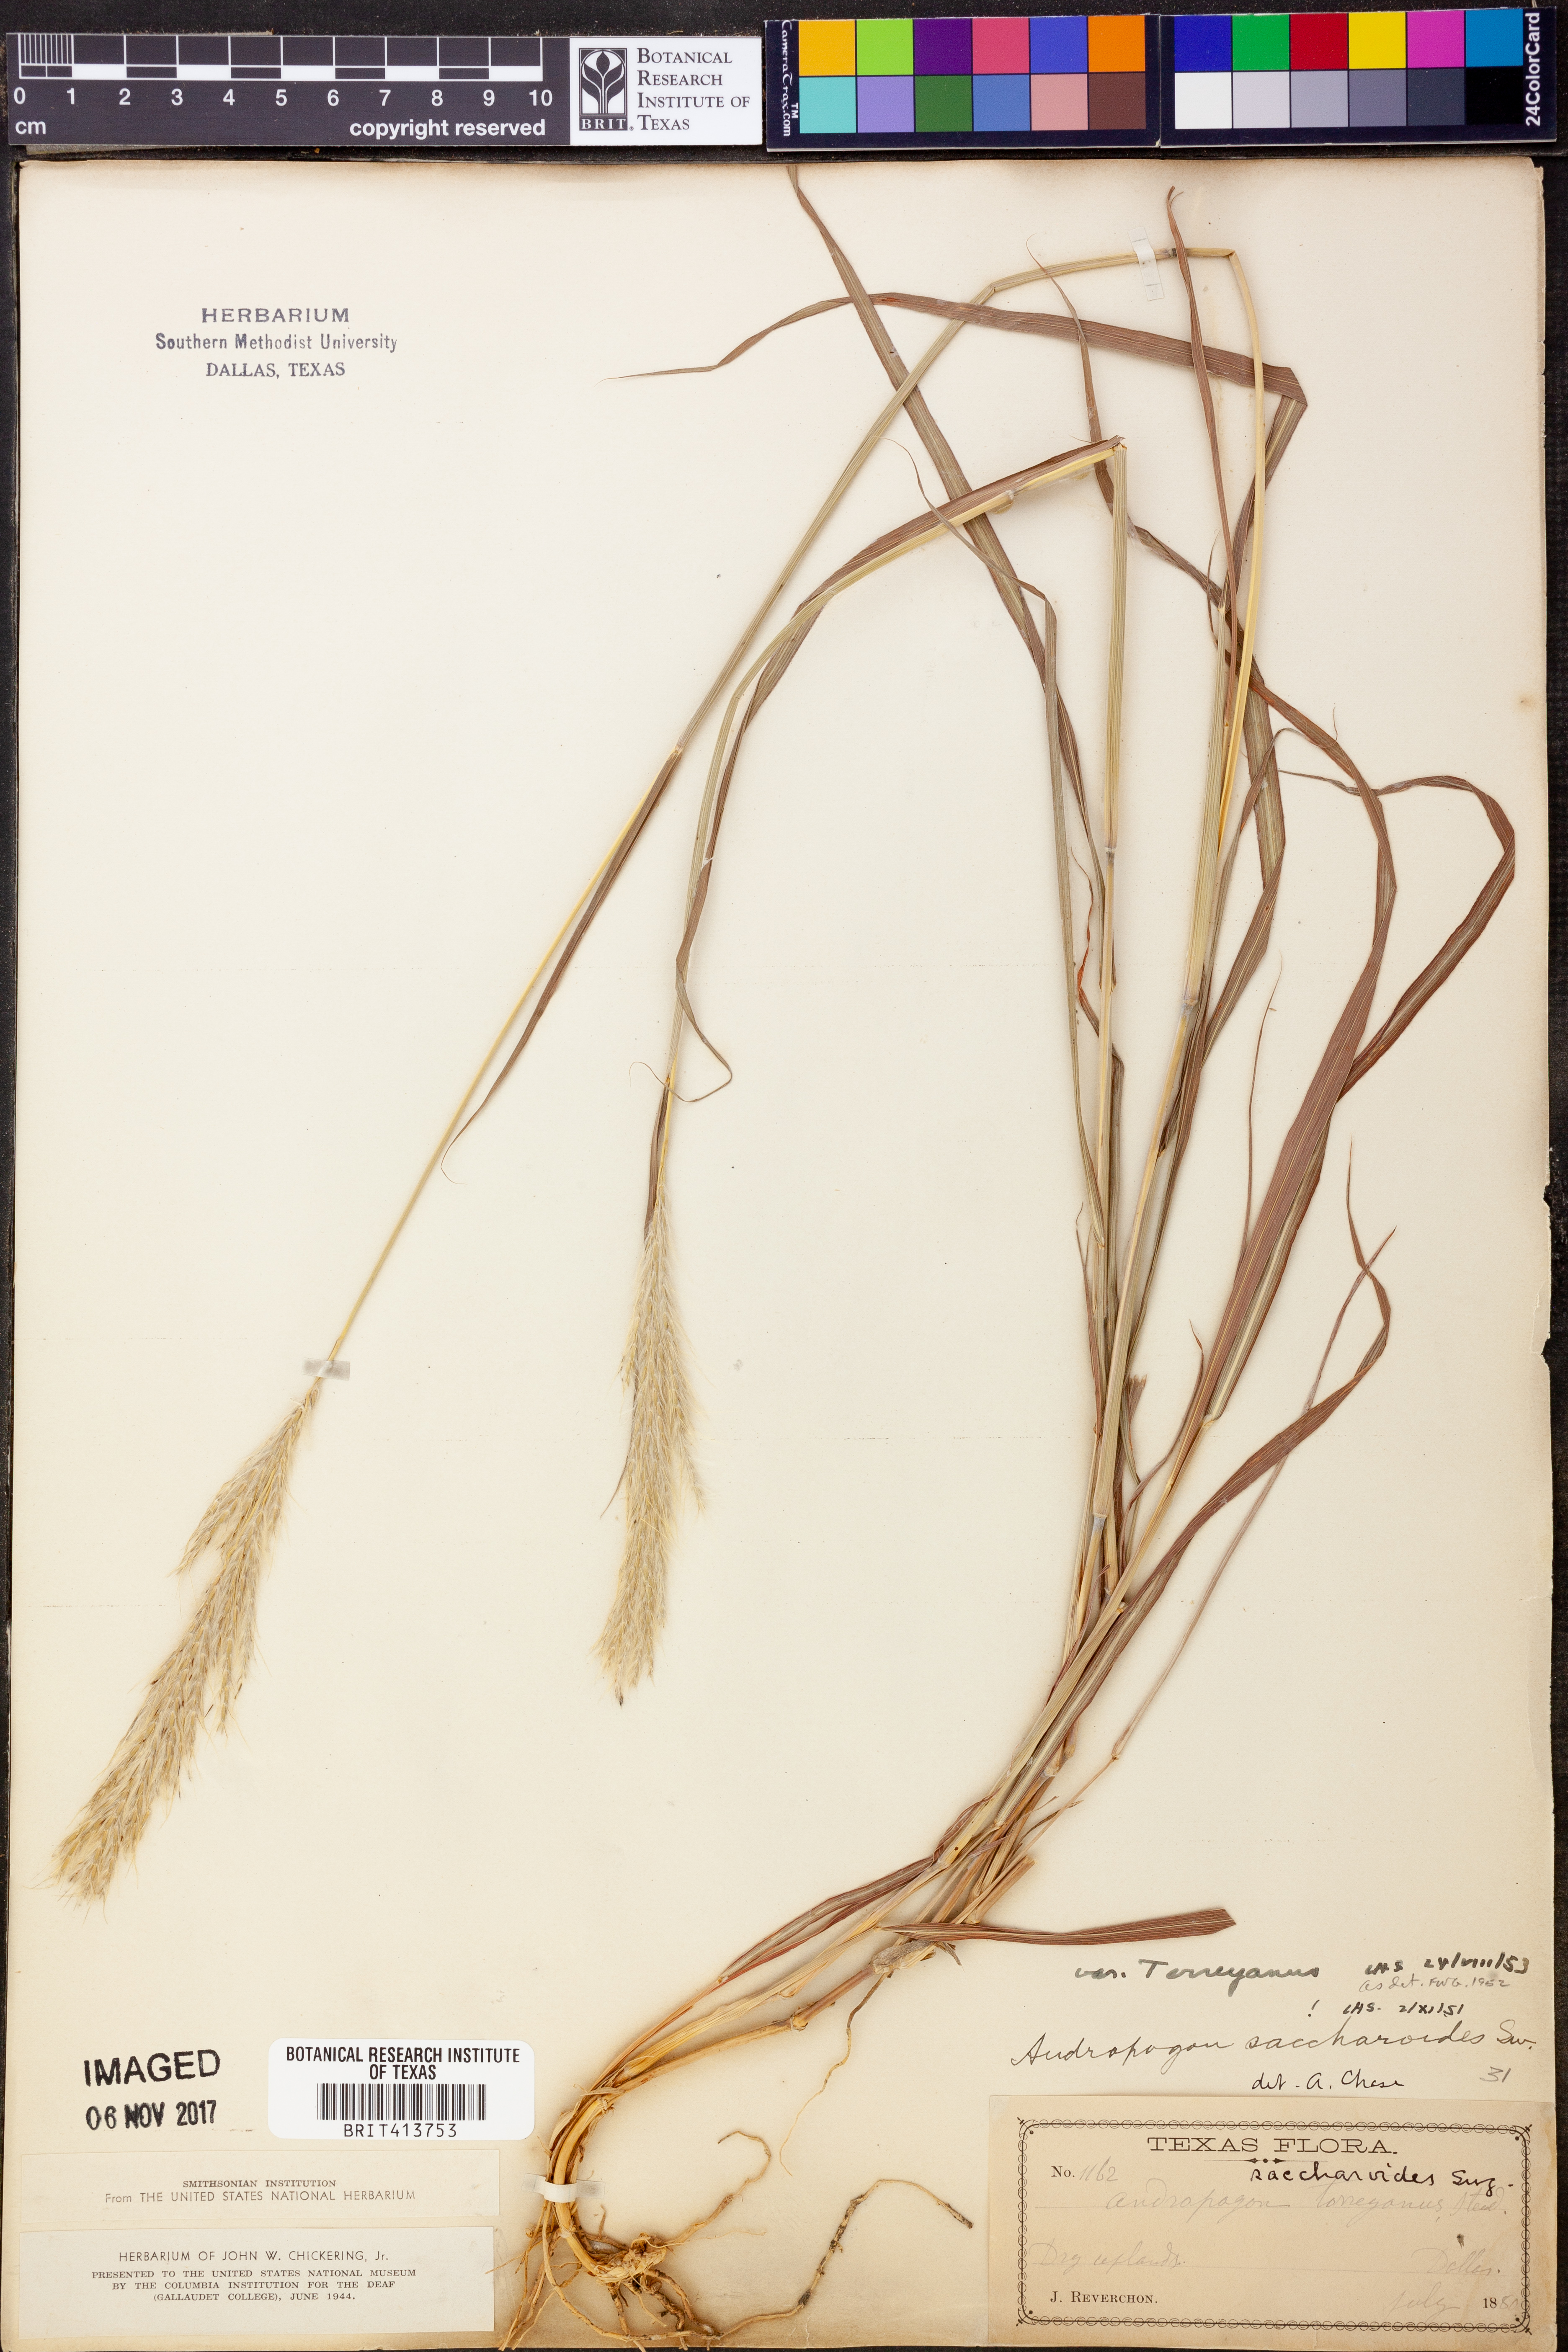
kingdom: Plantae
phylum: Tracheophyta
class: Liliopsida
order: Poales
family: Poaceae
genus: Bothriochloa
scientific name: Bothriochloa torreyana
